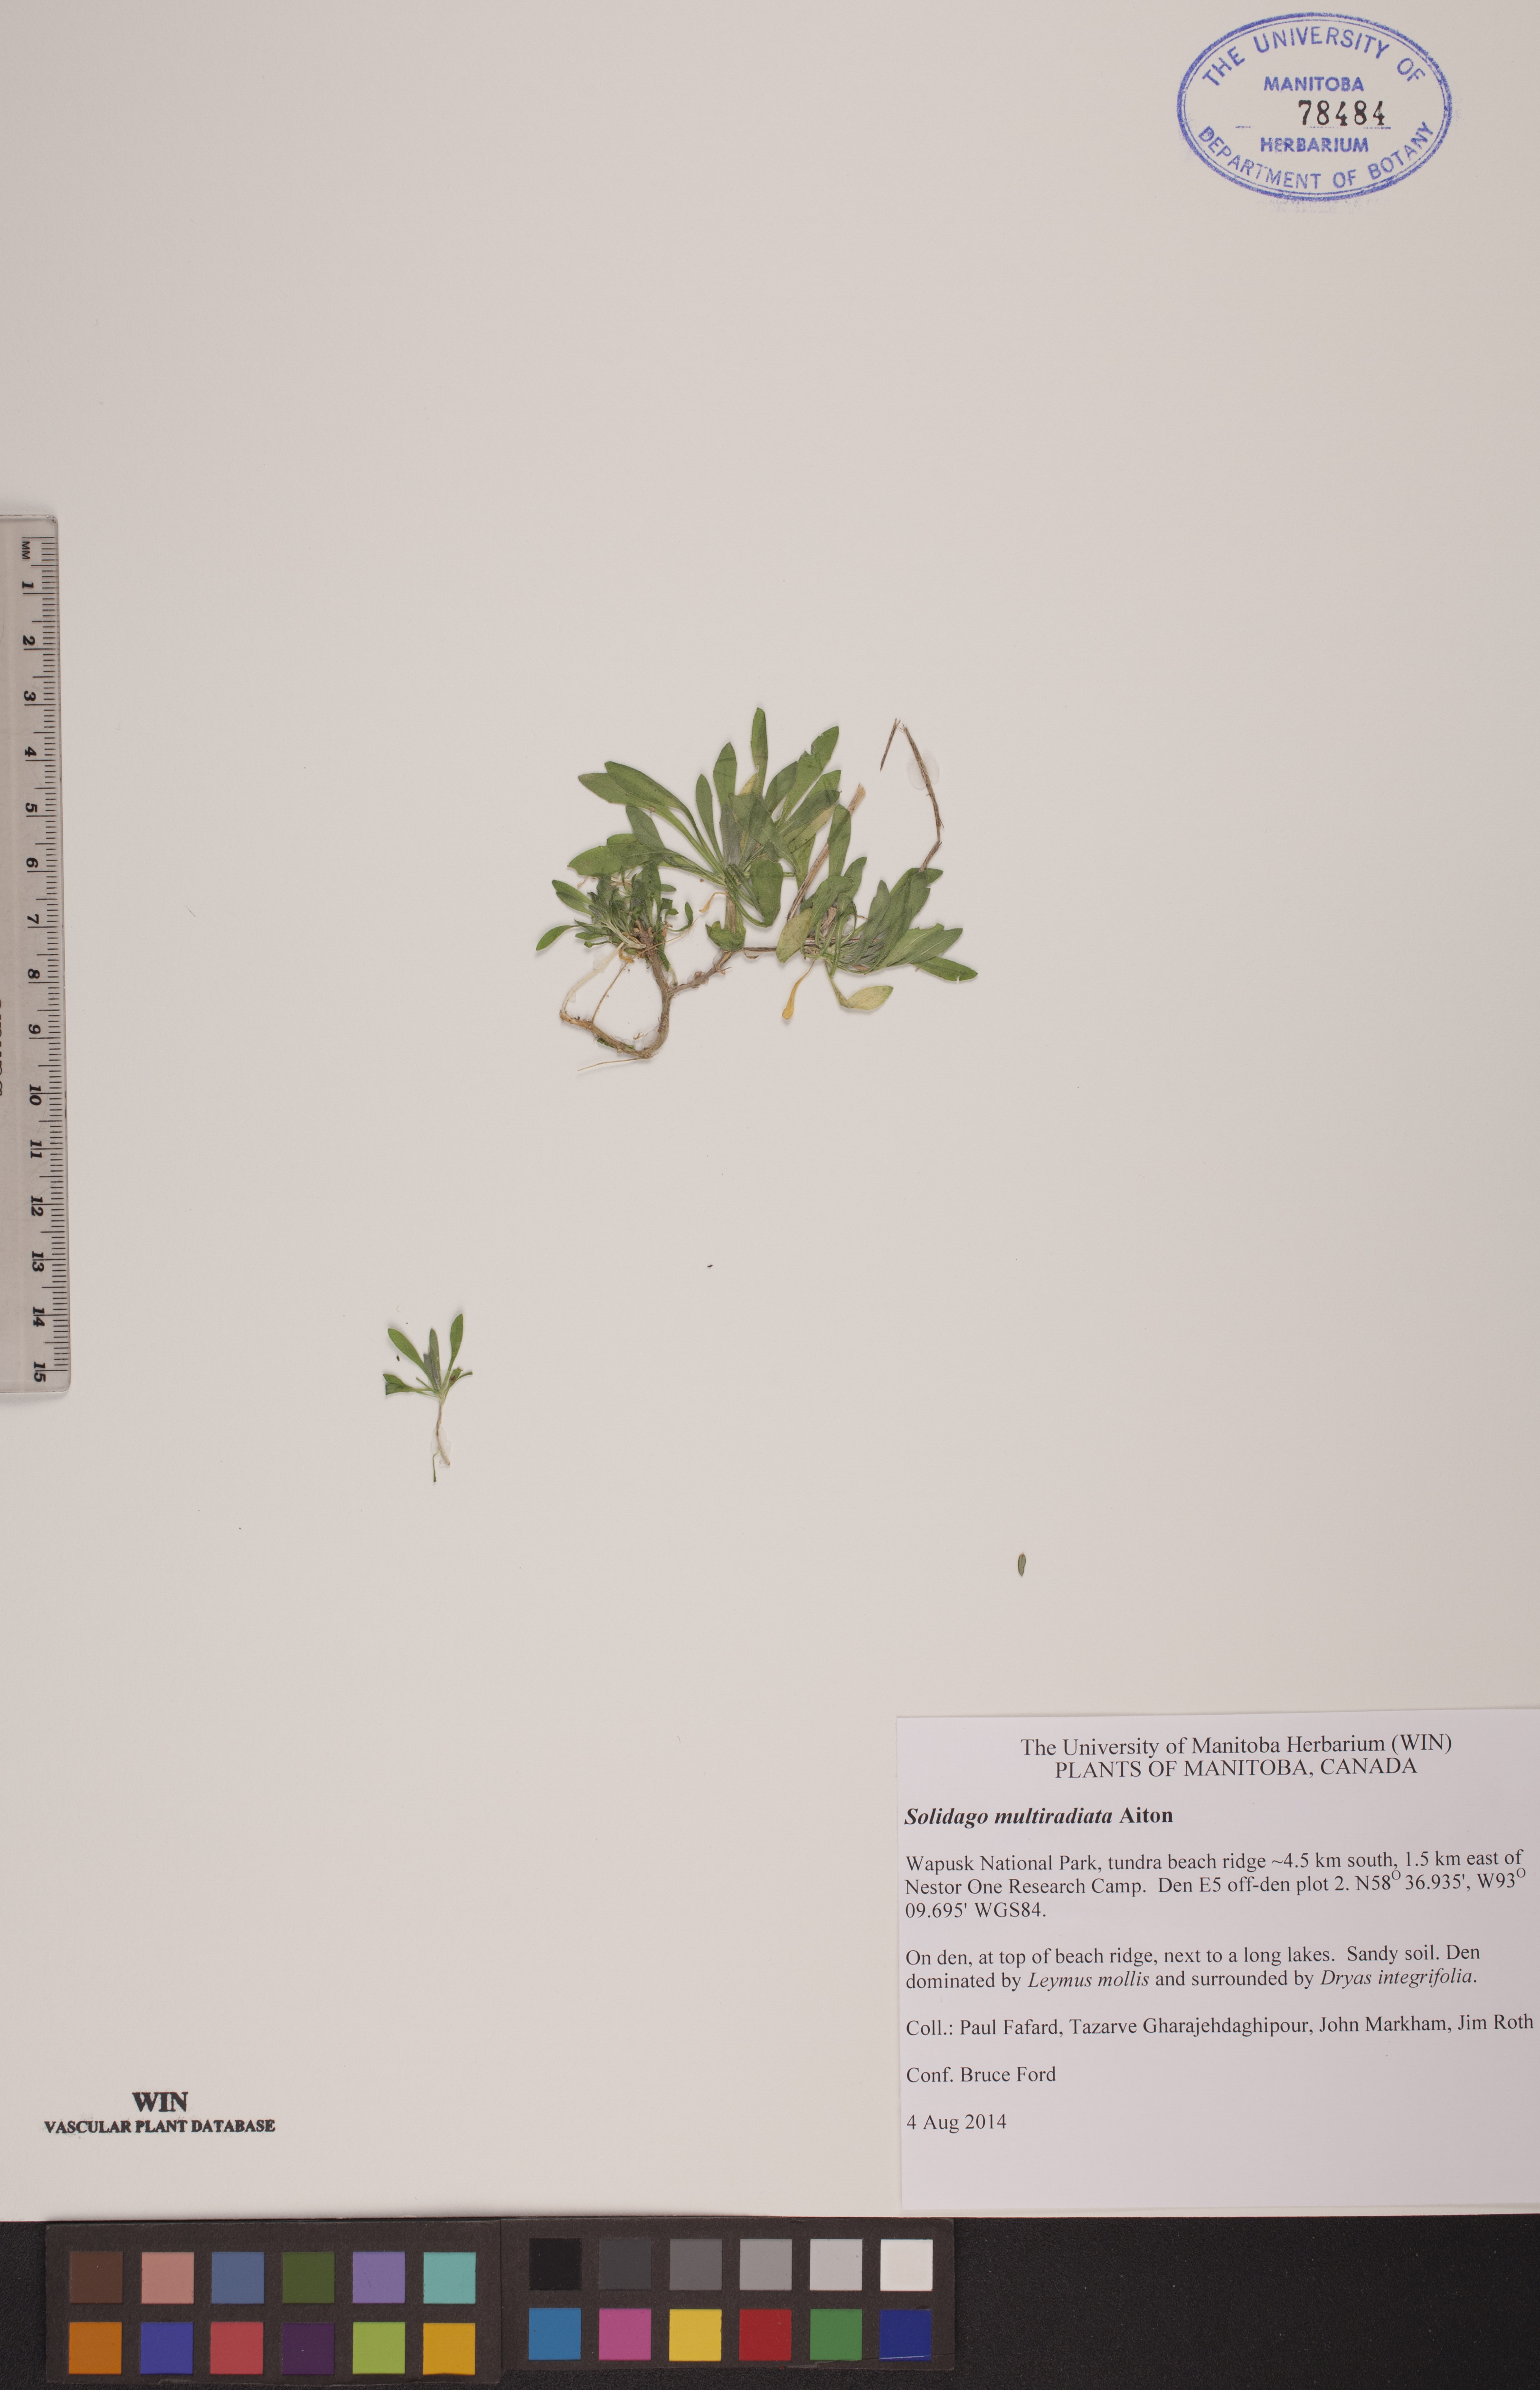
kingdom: Plantae
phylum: Tracheophyta
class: Magnoliopsida
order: Asterales
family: Asteraceae
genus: Solidago
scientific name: Solidago multiradiata
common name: Northern goldenrod
